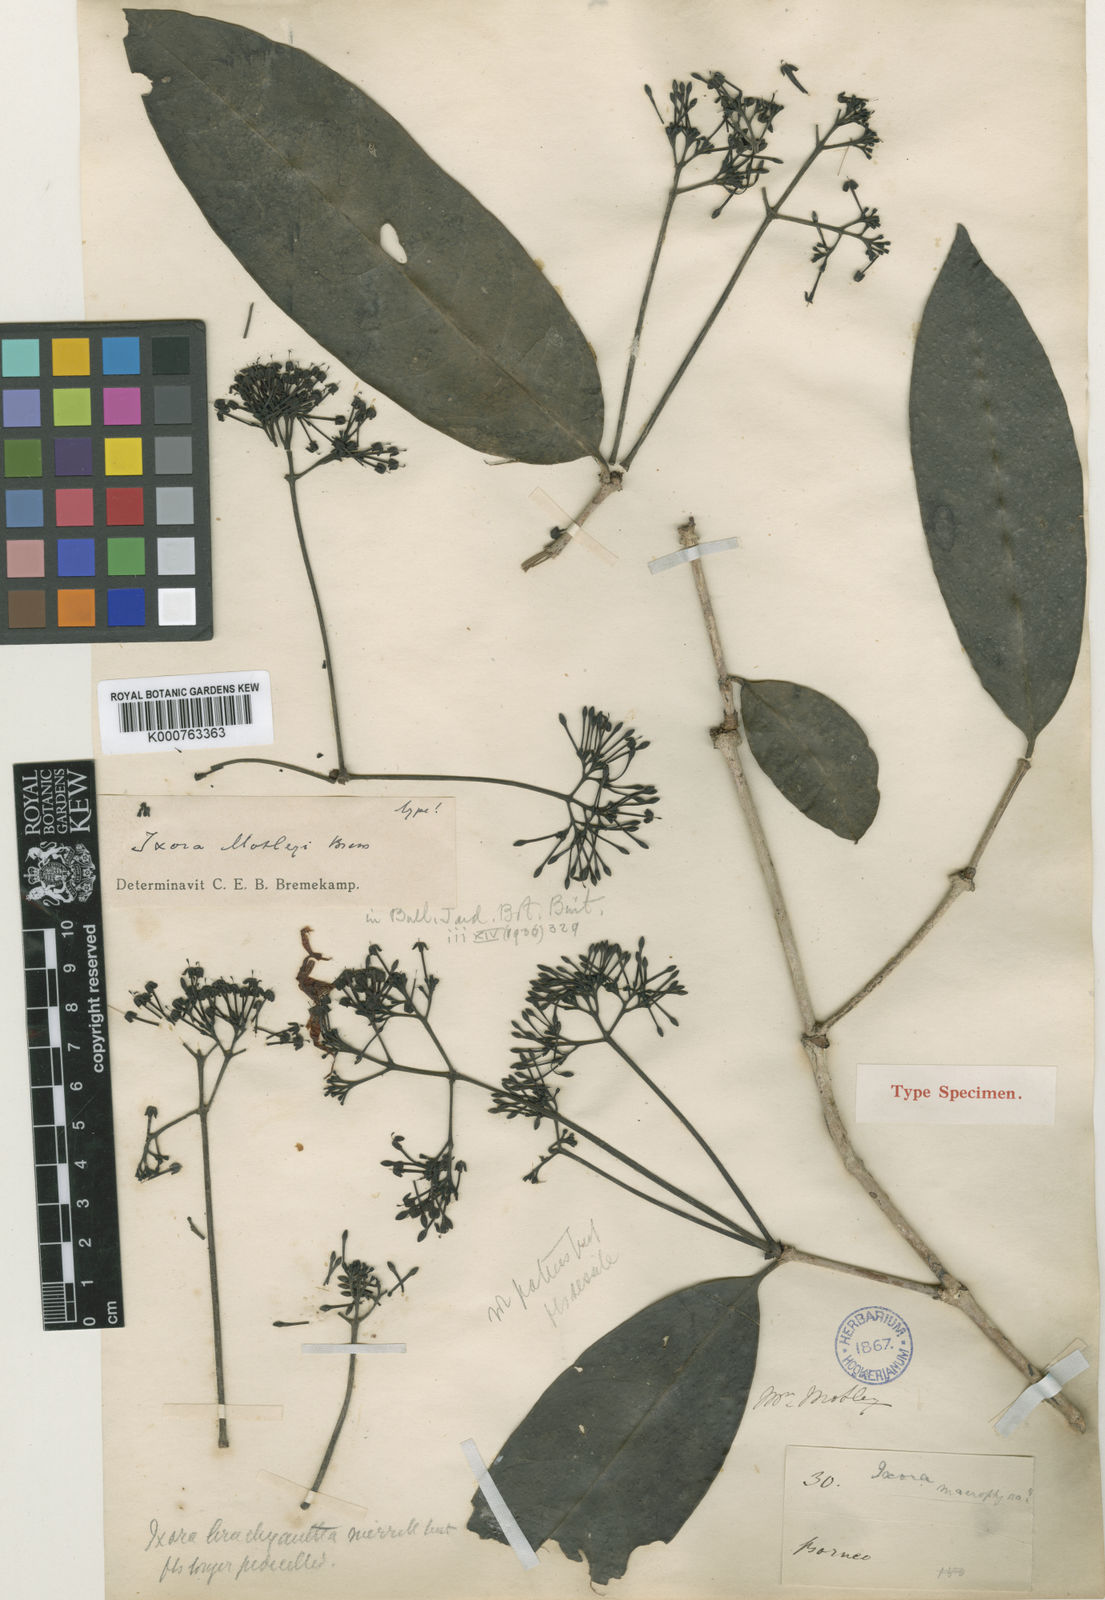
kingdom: Plantae
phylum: Tracheophyta
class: Magnoliopsida
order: Gentianales
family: Rubiaceae
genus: Ixora
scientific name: Ixora motleyi
